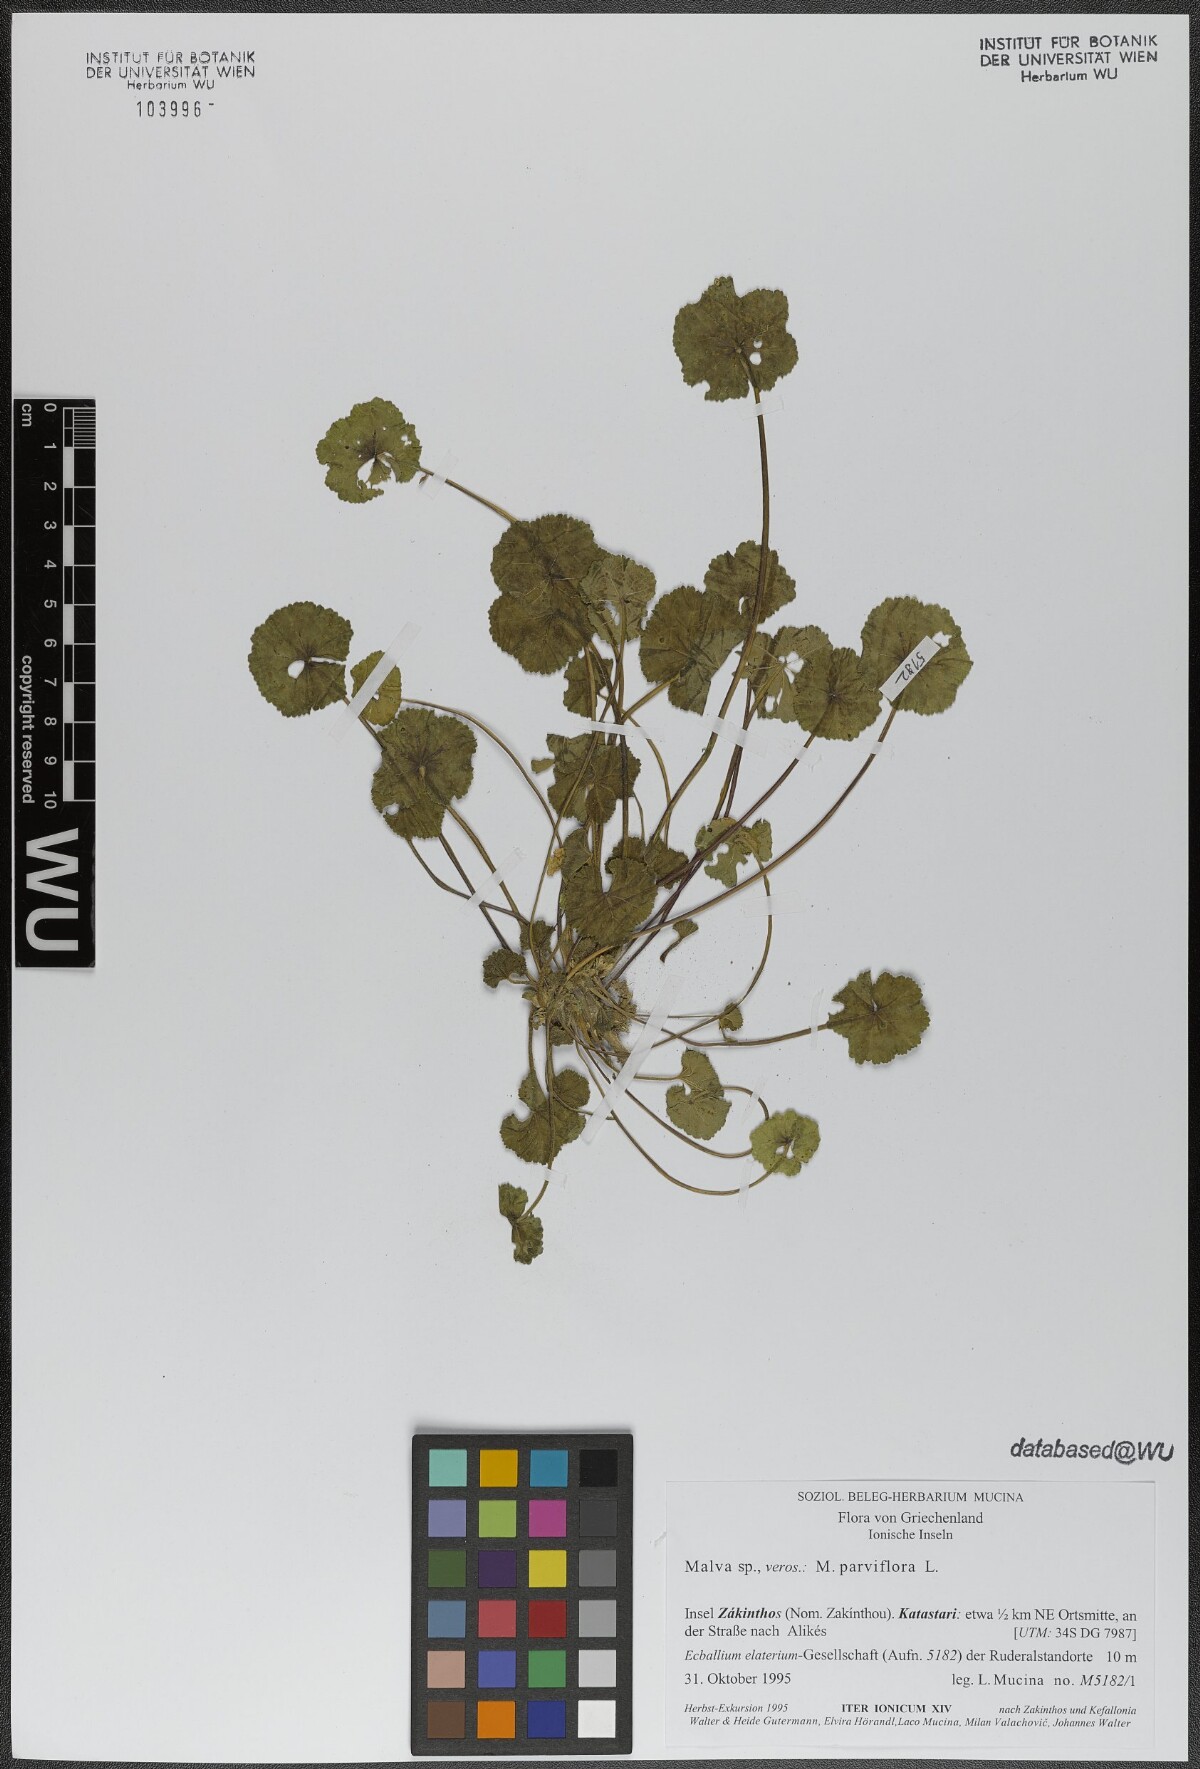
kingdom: Plantae
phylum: Tracheophyta
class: Magnoliopsida
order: Malvales
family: Malvaceae
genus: Malva
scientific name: Malva parviflora
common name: Least mallow
